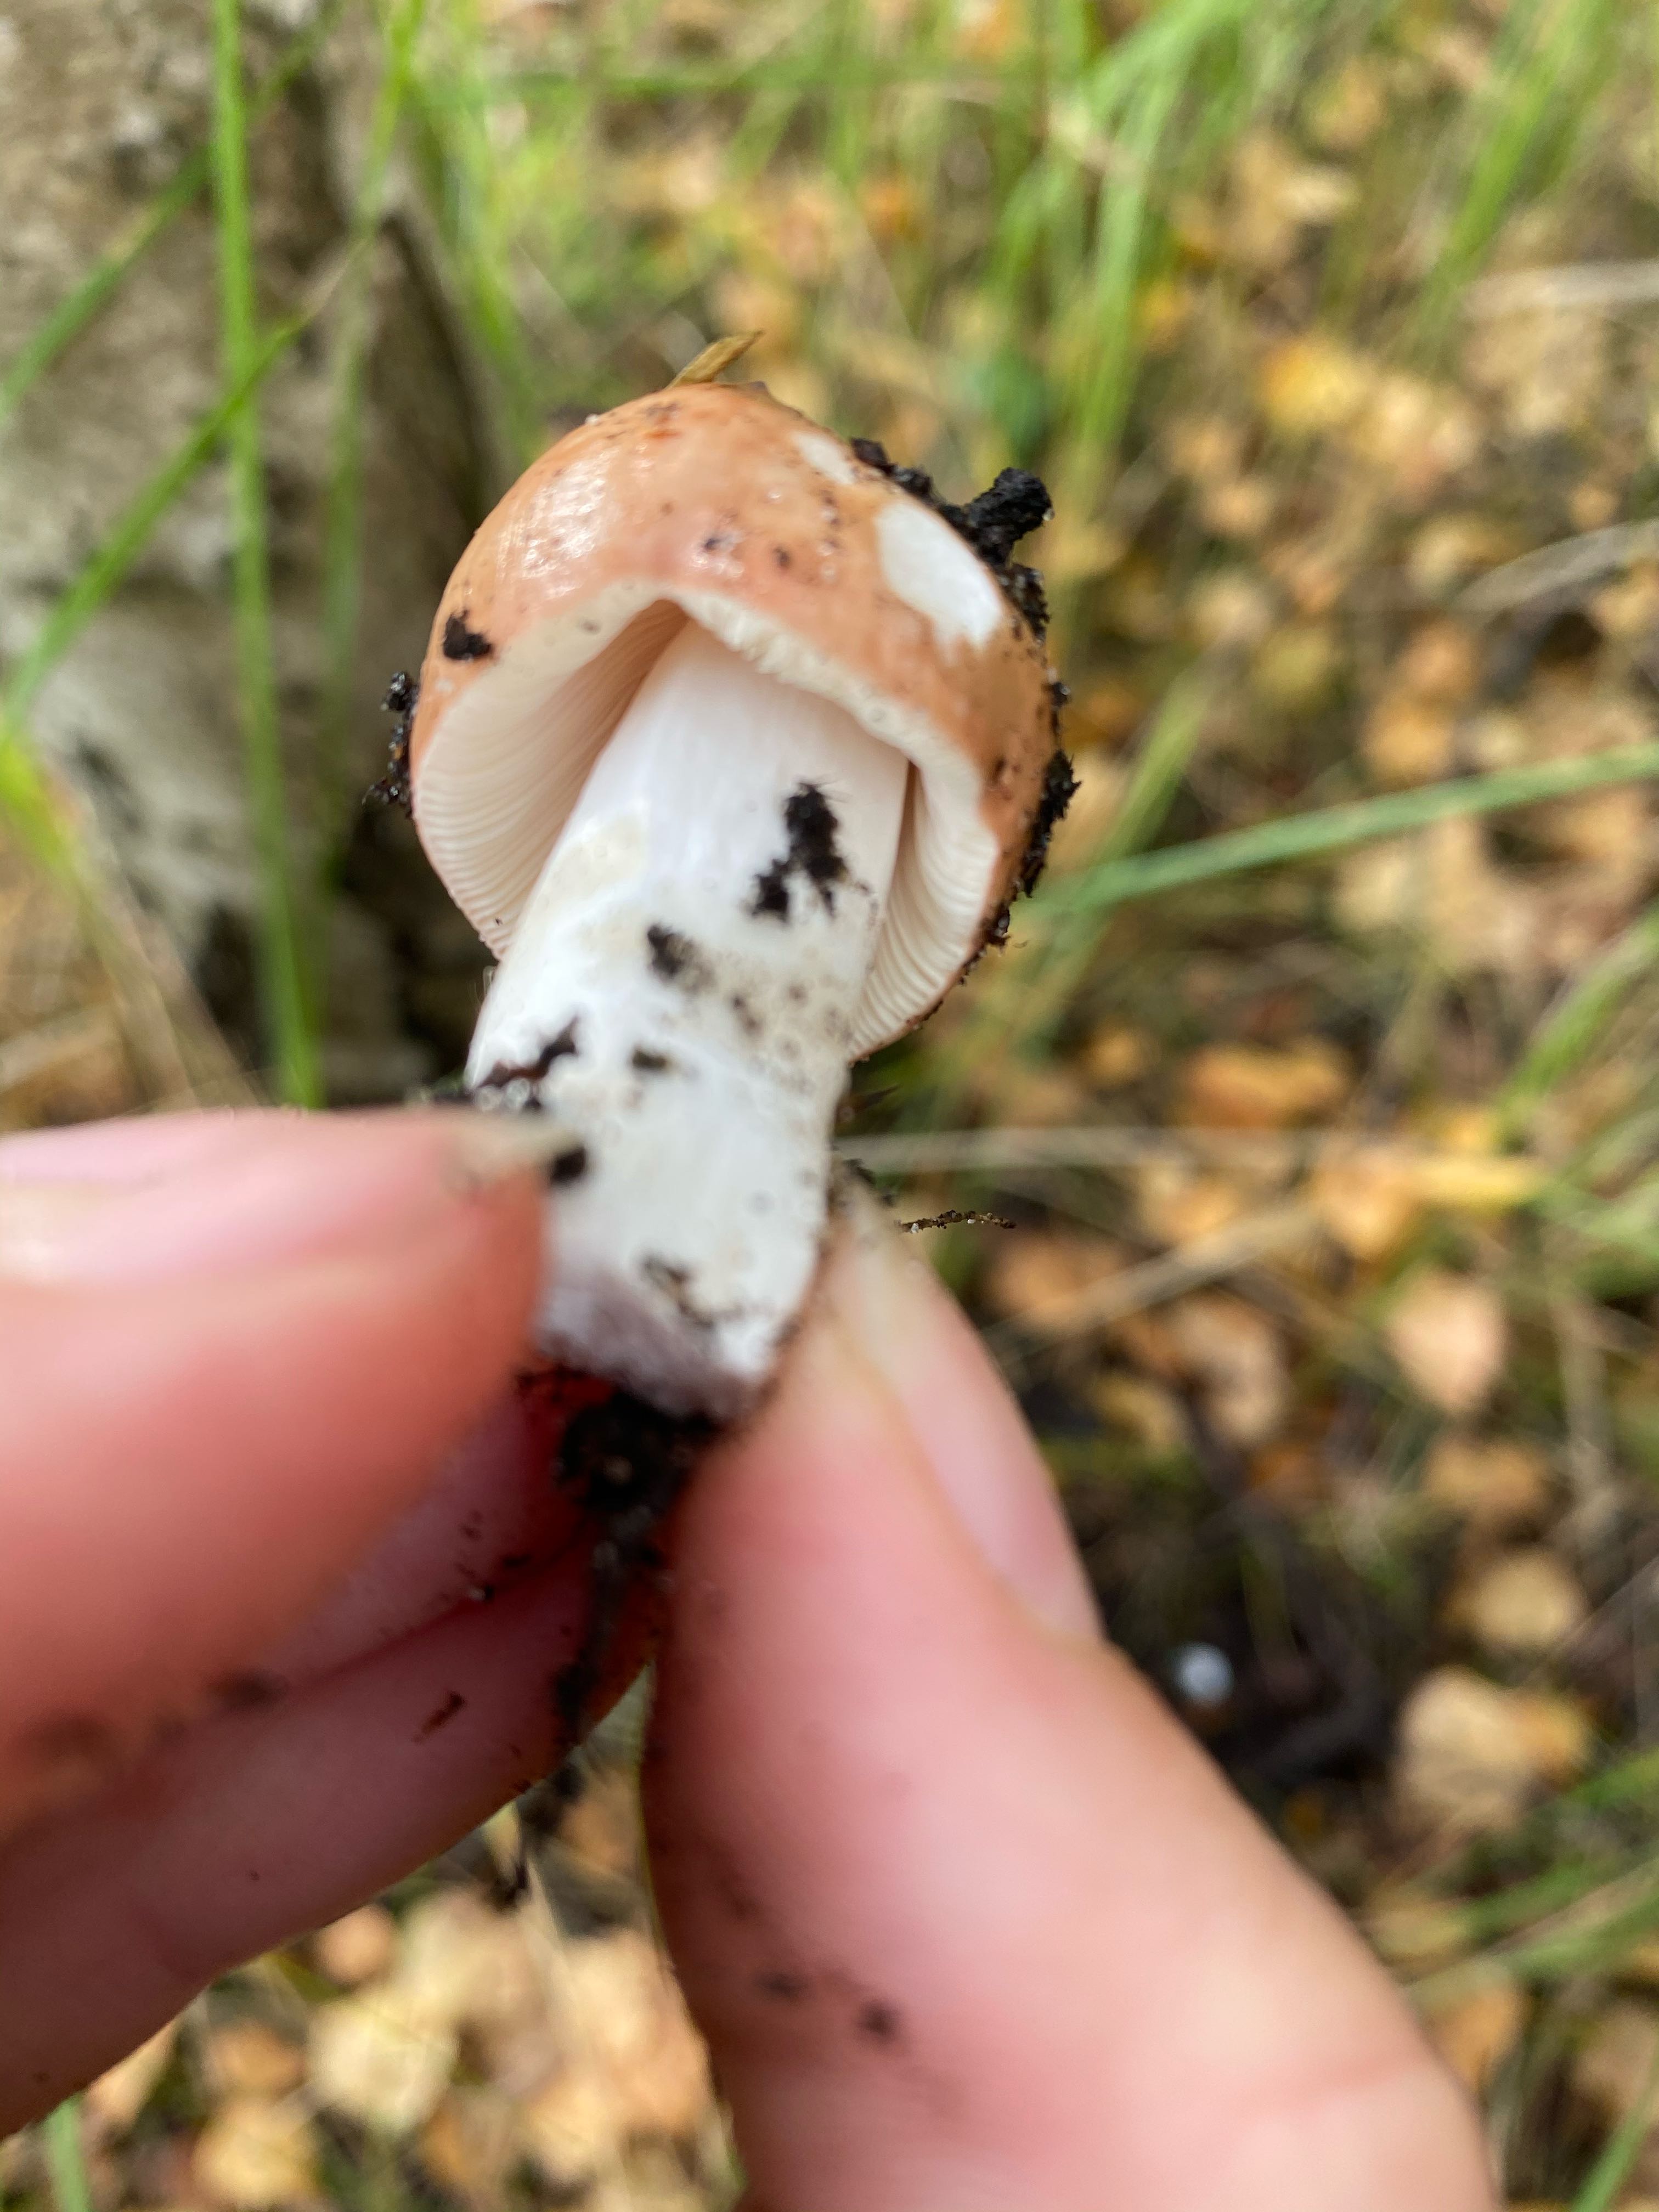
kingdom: Fungi
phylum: Basidiomycota
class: Agaricomycetes
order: Russulales
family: Russulaceae
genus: Russula
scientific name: Russula
